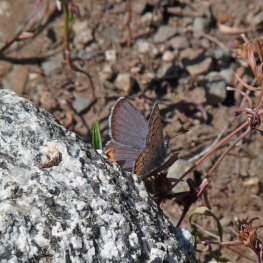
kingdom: Animalia
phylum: Arthropoda
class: Insecta
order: Lepidoptera
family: Lycaenidae
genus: Plebejus
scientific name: Plebejus lupini
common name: Lupine Blue
